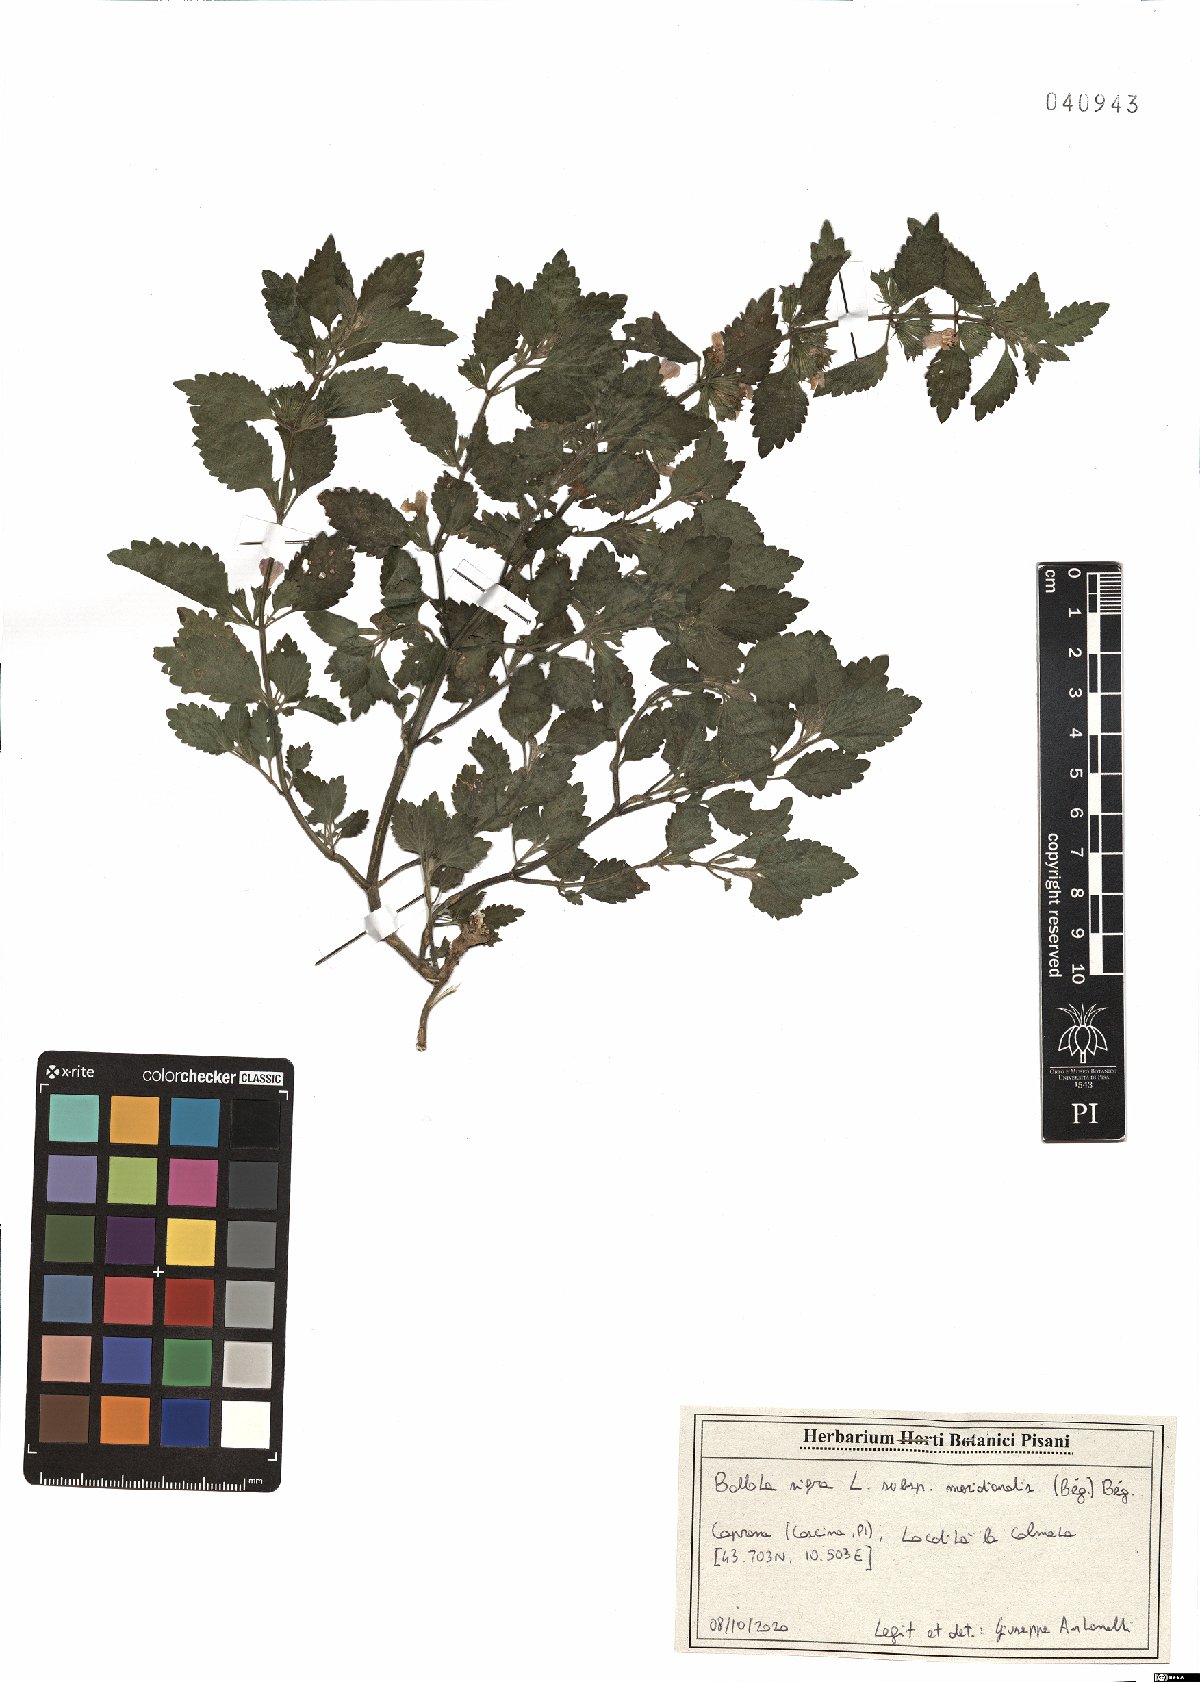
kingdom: Plantae
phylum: Tracheophyta
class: Magnoliopsida
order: Lamiales
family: Lamiaceae
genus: Ballota
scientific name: Ballota nigra
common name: Black horehound
